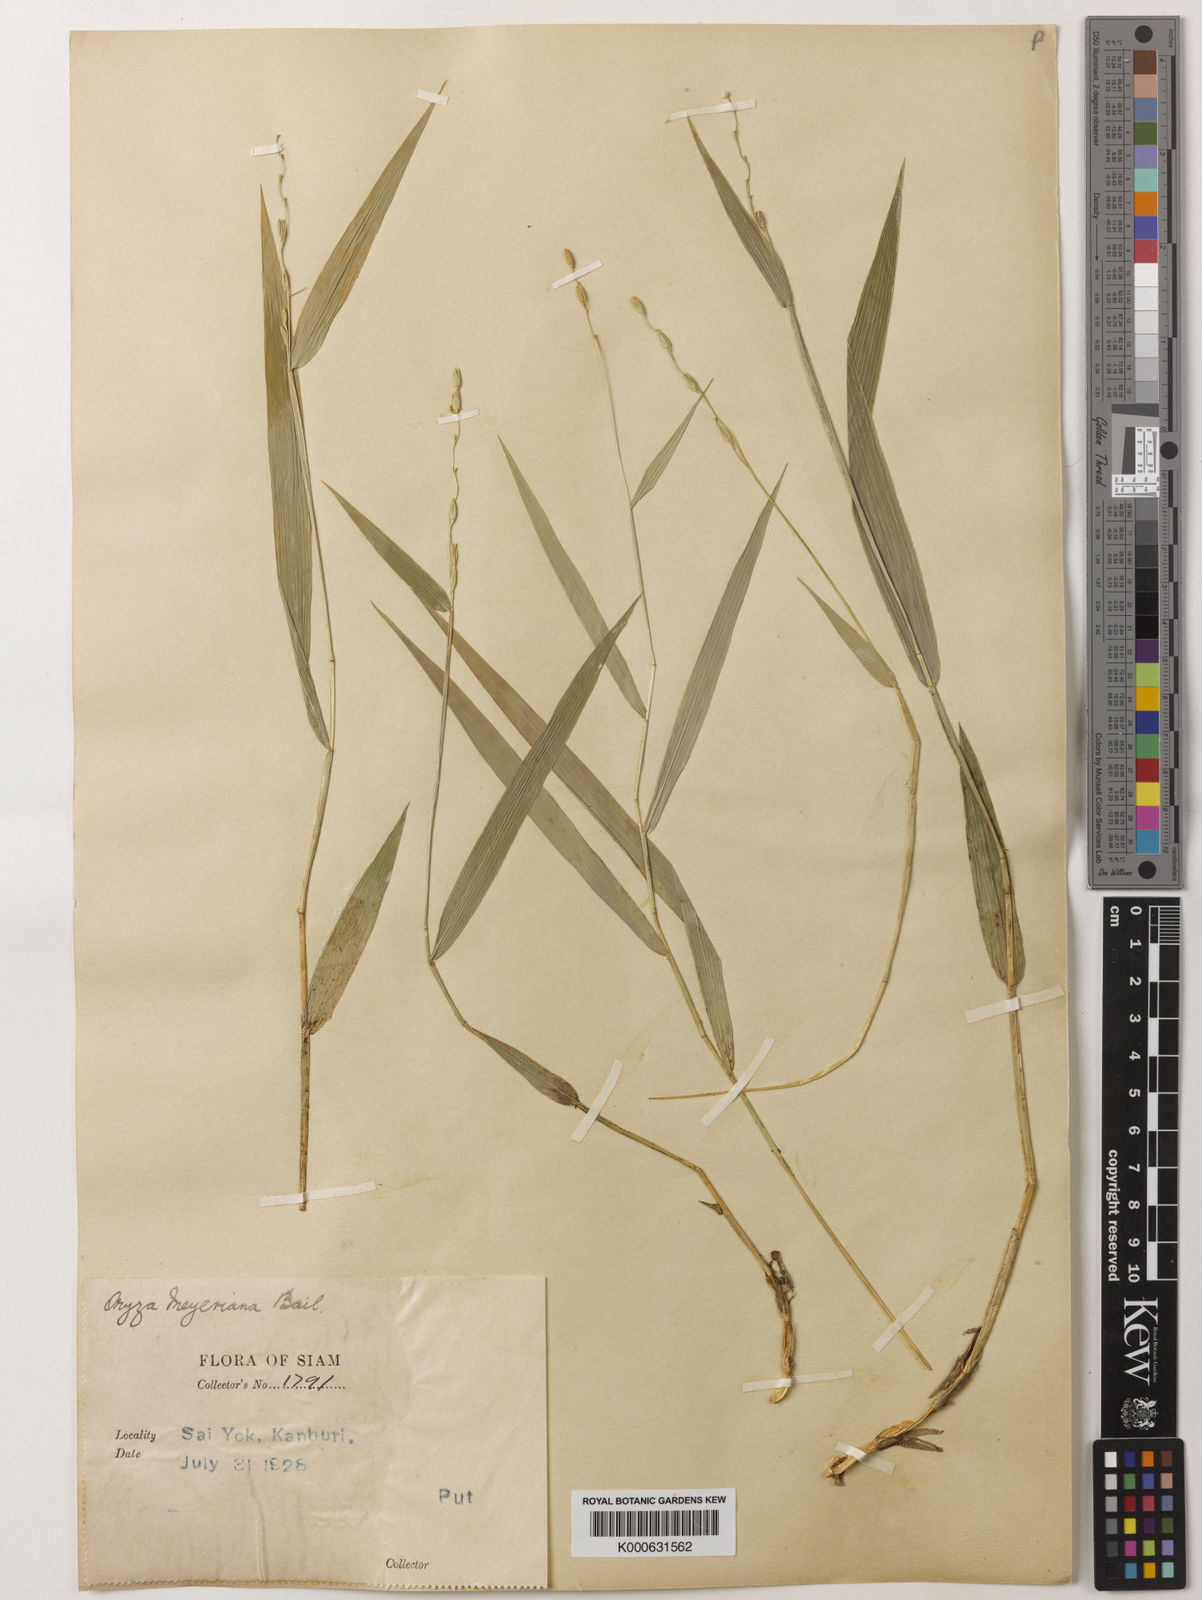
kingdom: Plantae
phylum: Tracheophyta
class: Liliopsida
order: Poales
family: Poaceae
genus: Oryza
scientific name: Oryza meyeriana
